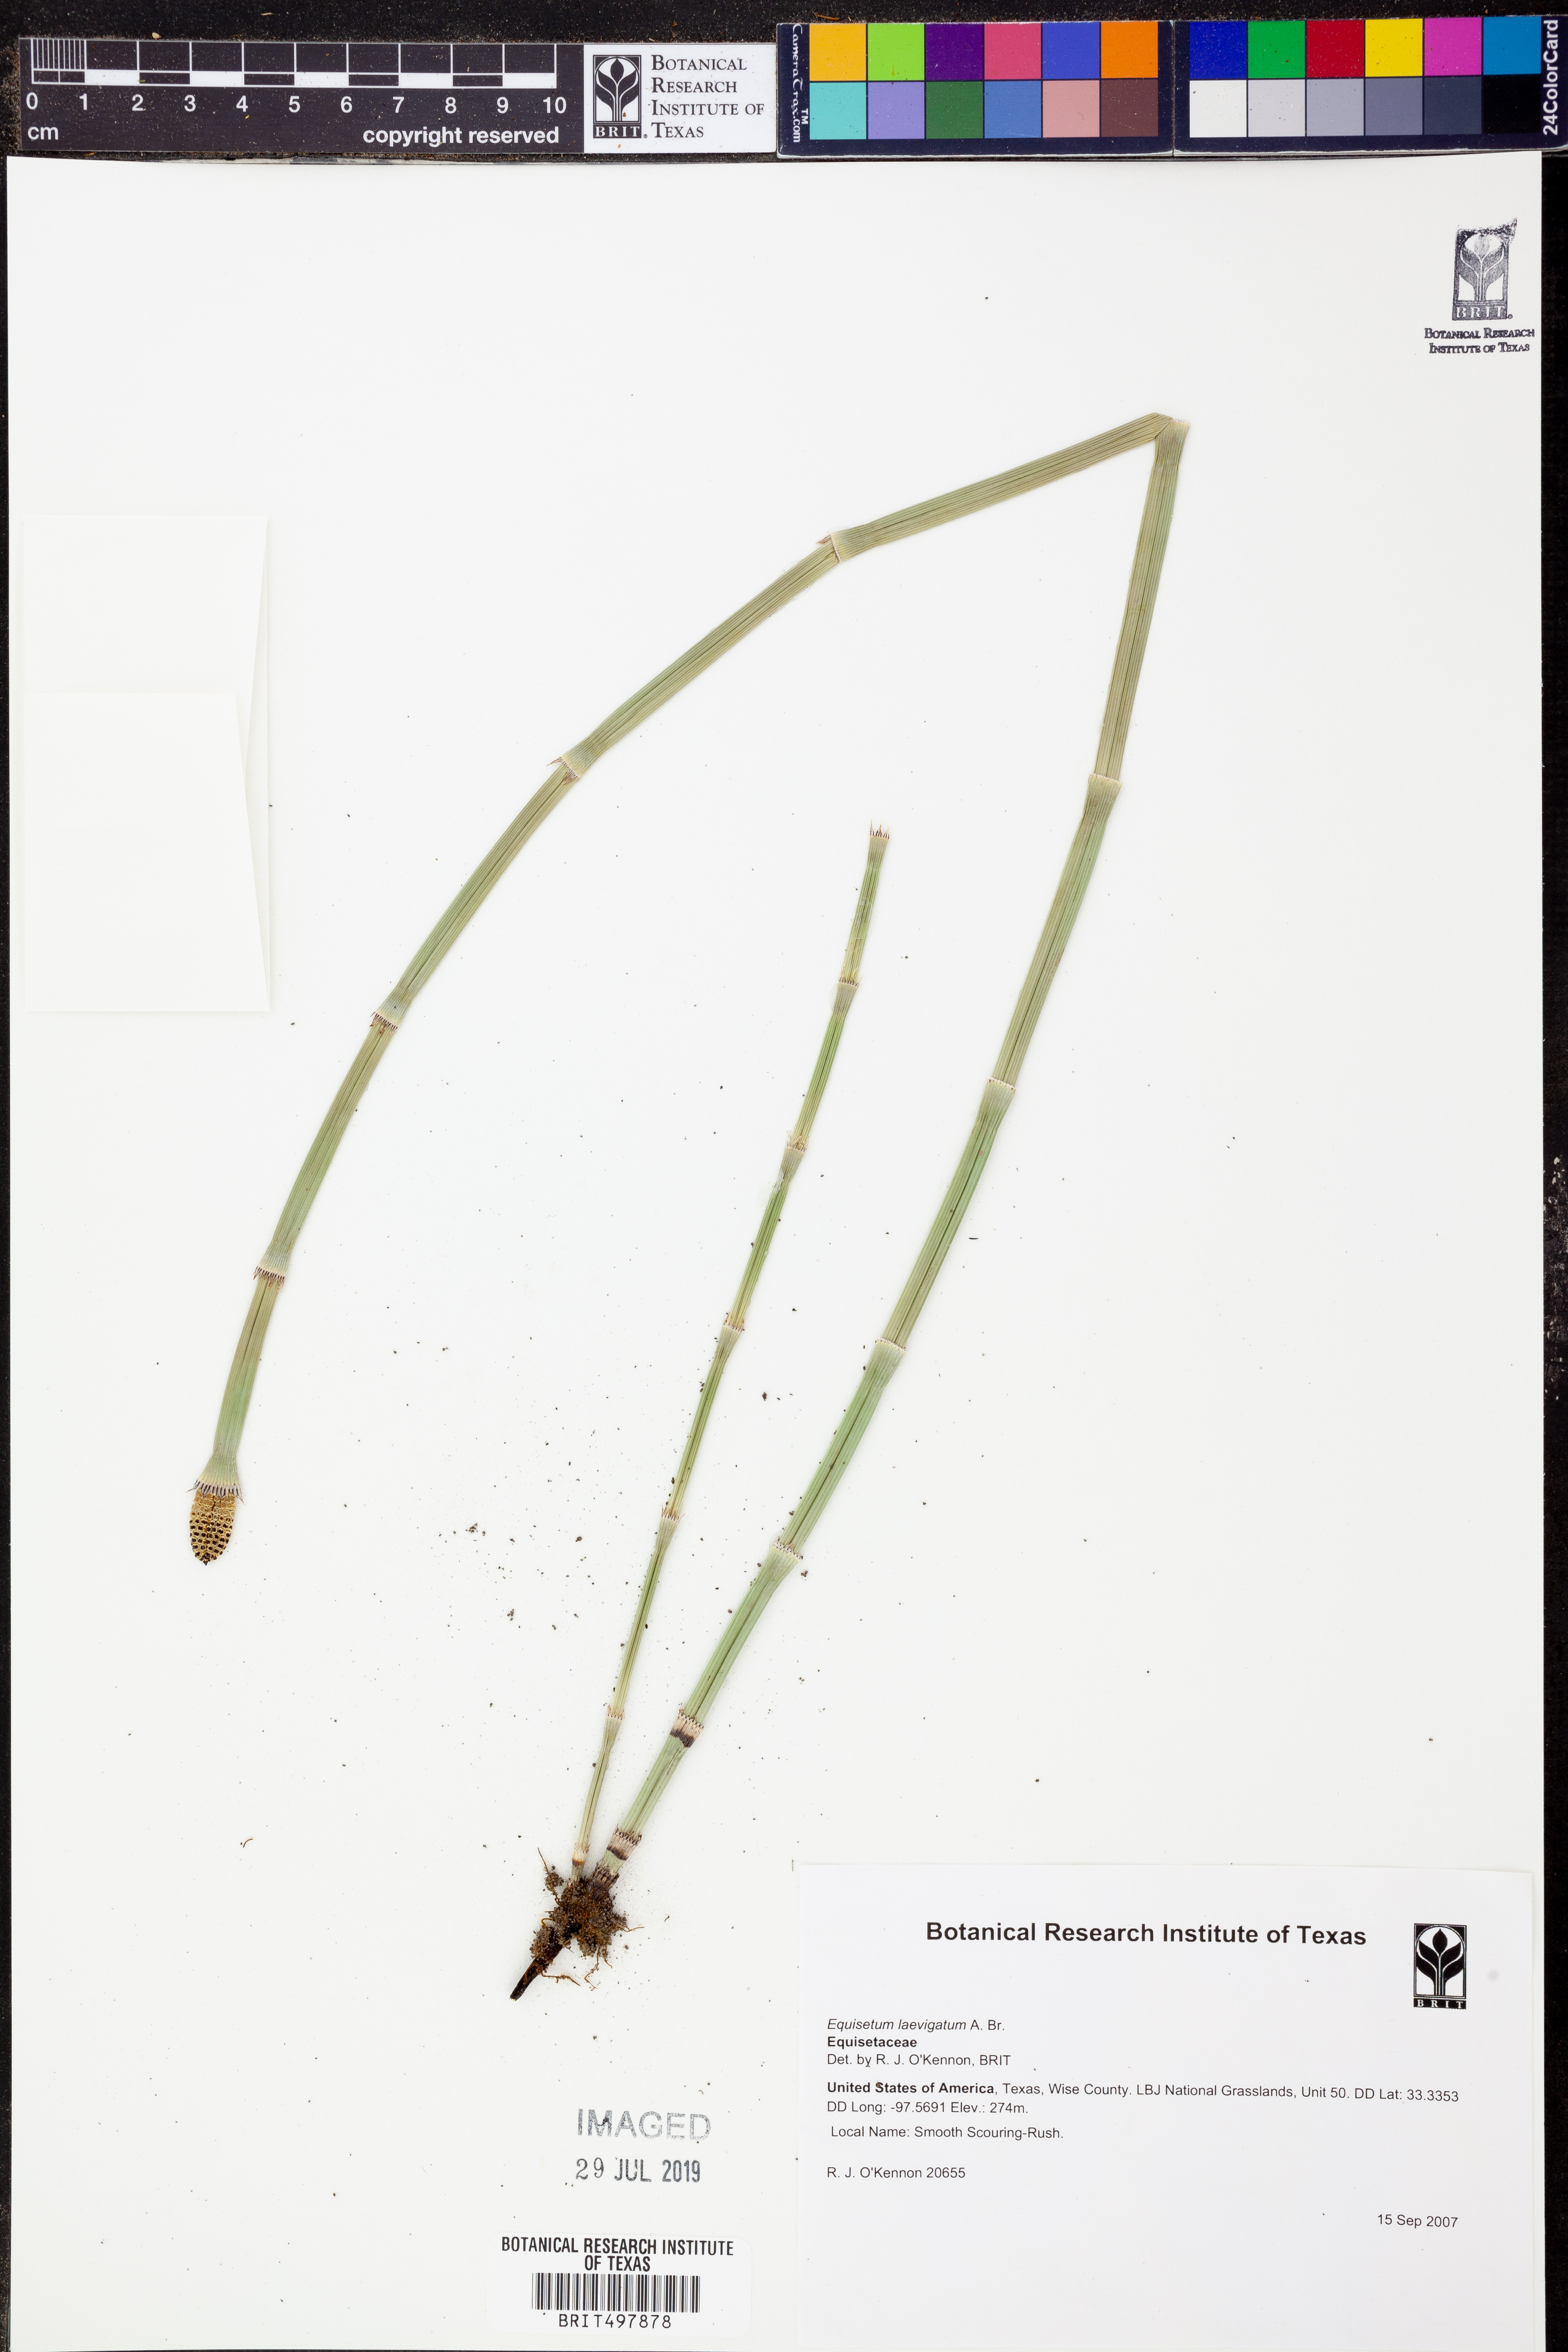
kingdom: Plantae
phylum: Tracheophyta
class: Polypodiopsida
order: Equisetales
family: Equisetaceae
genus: Equisetum
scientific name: Equisetum laevigatum
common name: Smooth scouring-rush
